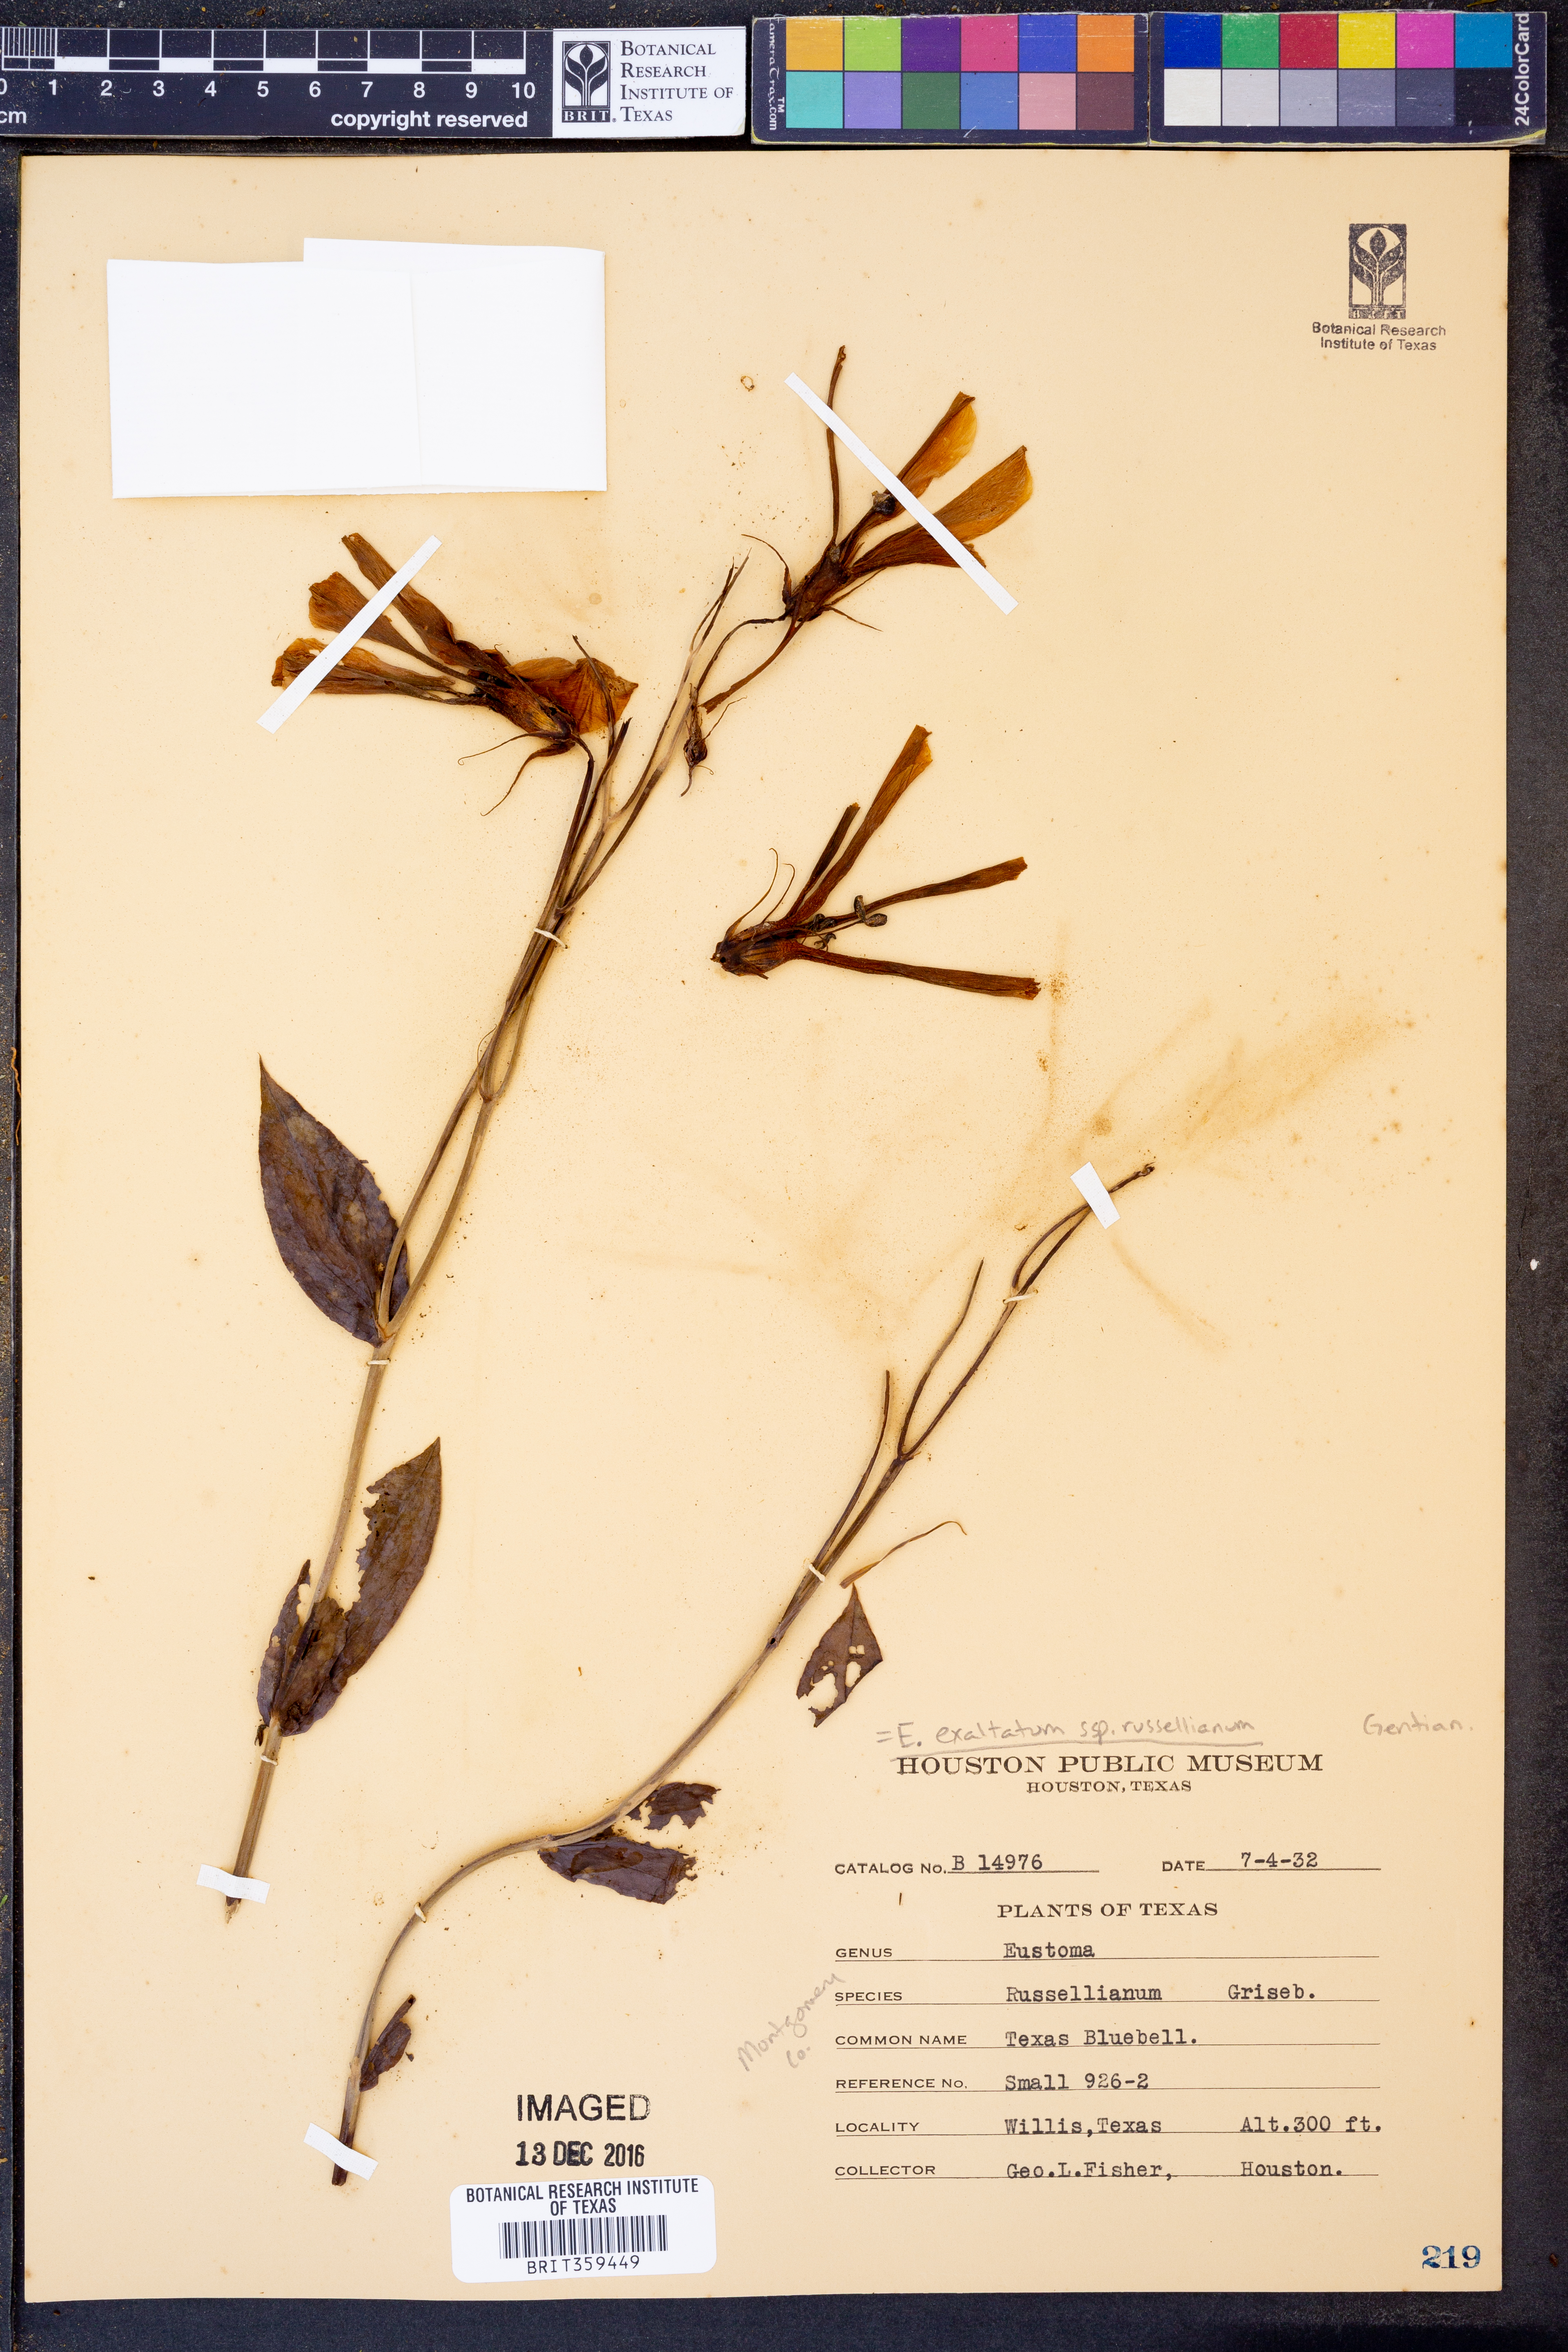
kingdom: Plantae
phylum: Tracheophyta
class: Magnoliopsida
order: Gentianales
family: Gentianaceae
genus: Eustoma
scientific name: Eustoma russellianum
